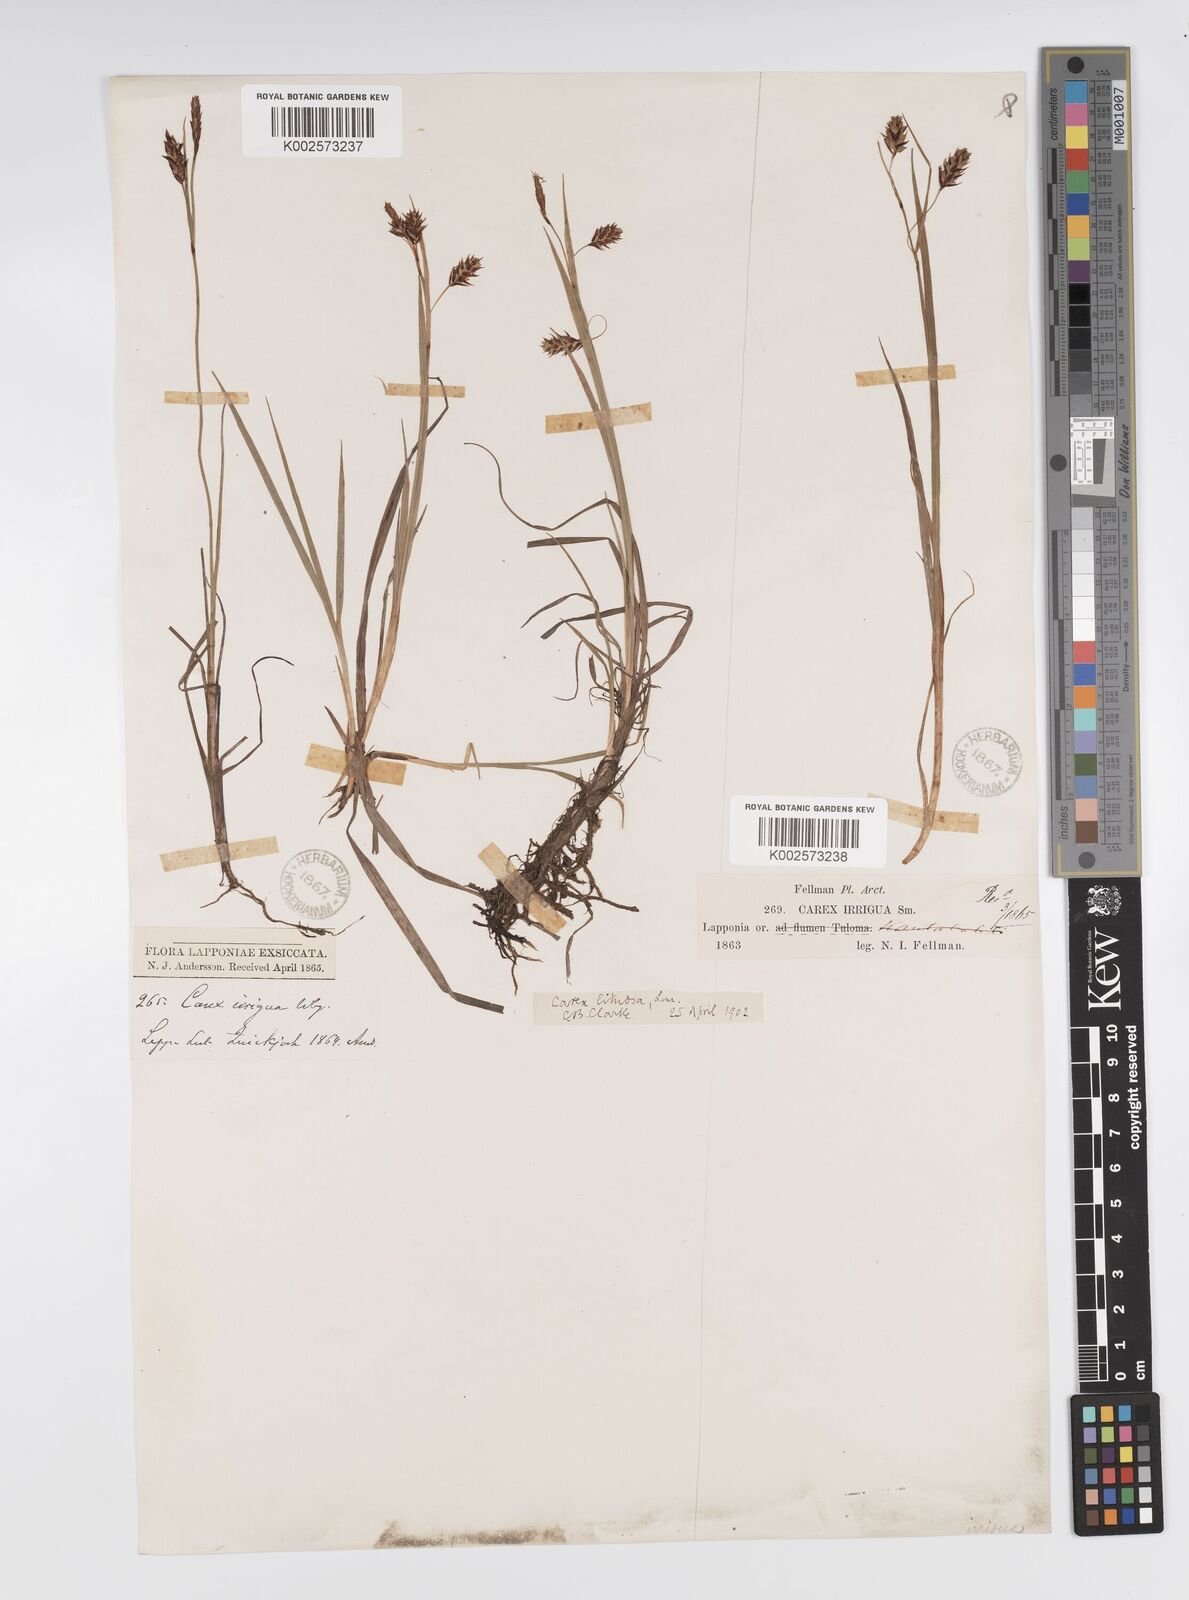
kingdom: Plantae
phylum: Tracheophyta
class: Liliopsida
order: Poales
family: Cyperaceae
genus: Carex
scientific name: Carex magellanica
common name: Bog sedge
